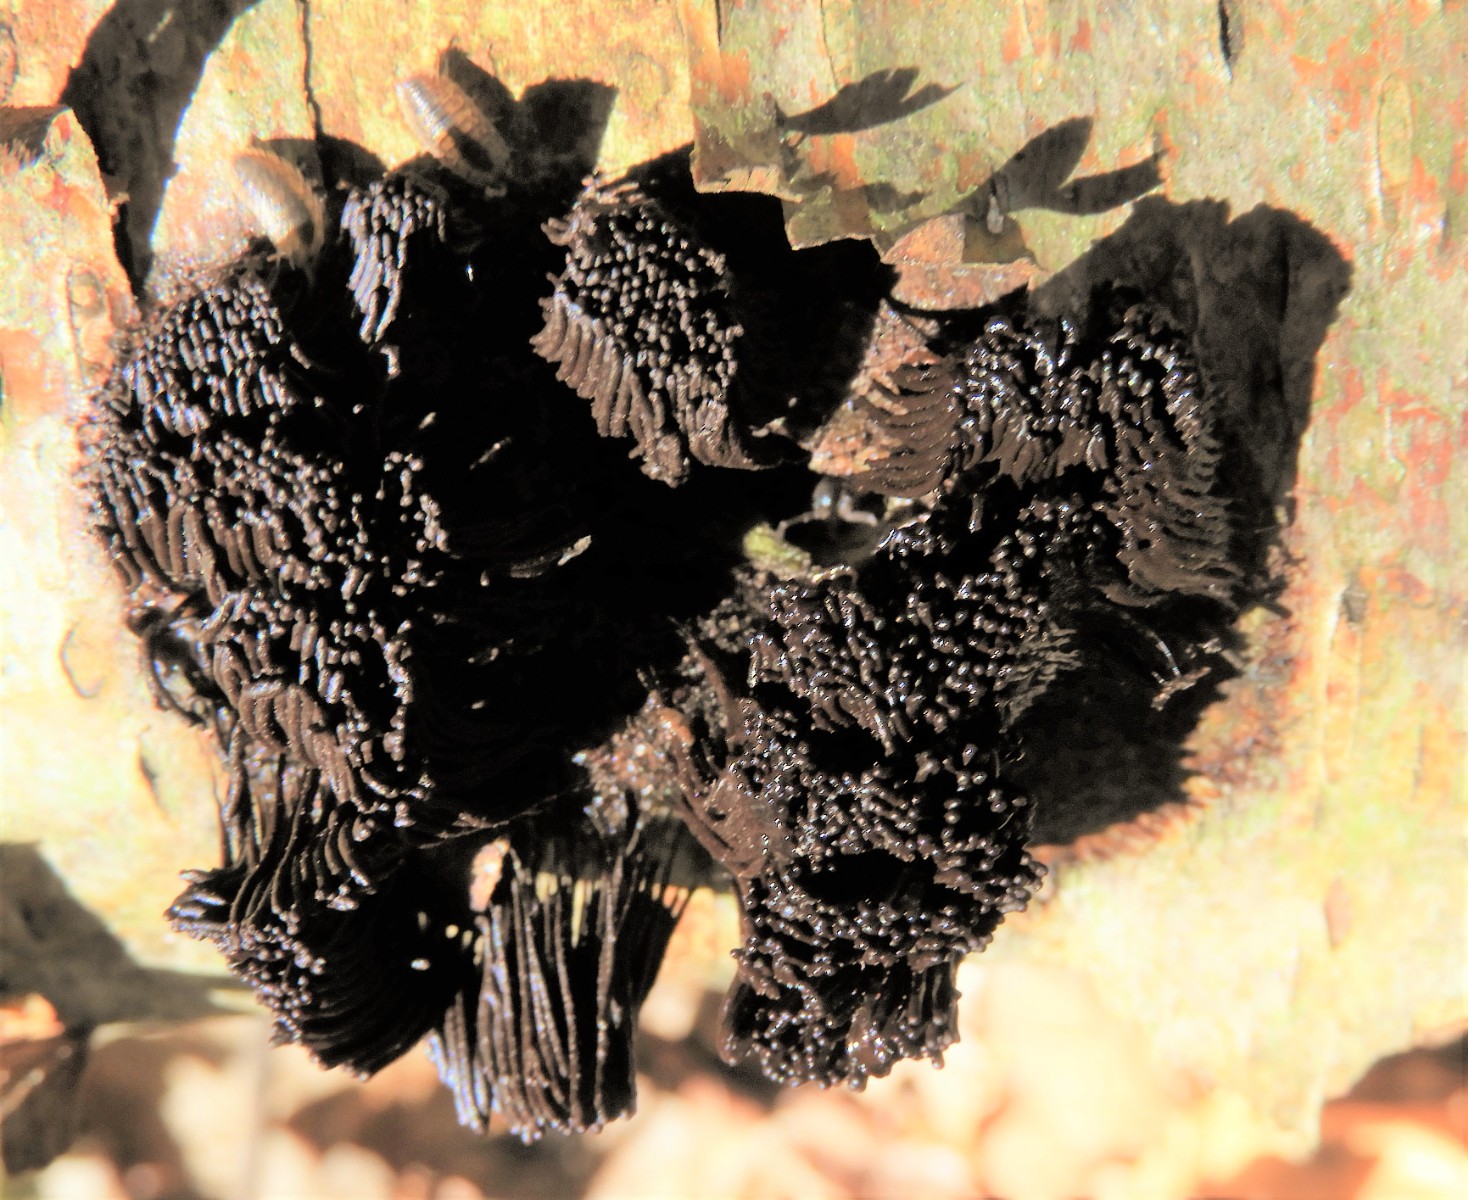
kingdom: Protozoa
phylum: Mycetozoa
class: Myxomycetes
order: Stemonitidales
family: Stemonitidaceae
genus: Stemonitis
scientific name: Stemonitis axifera
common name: rødbrun støvkølle
